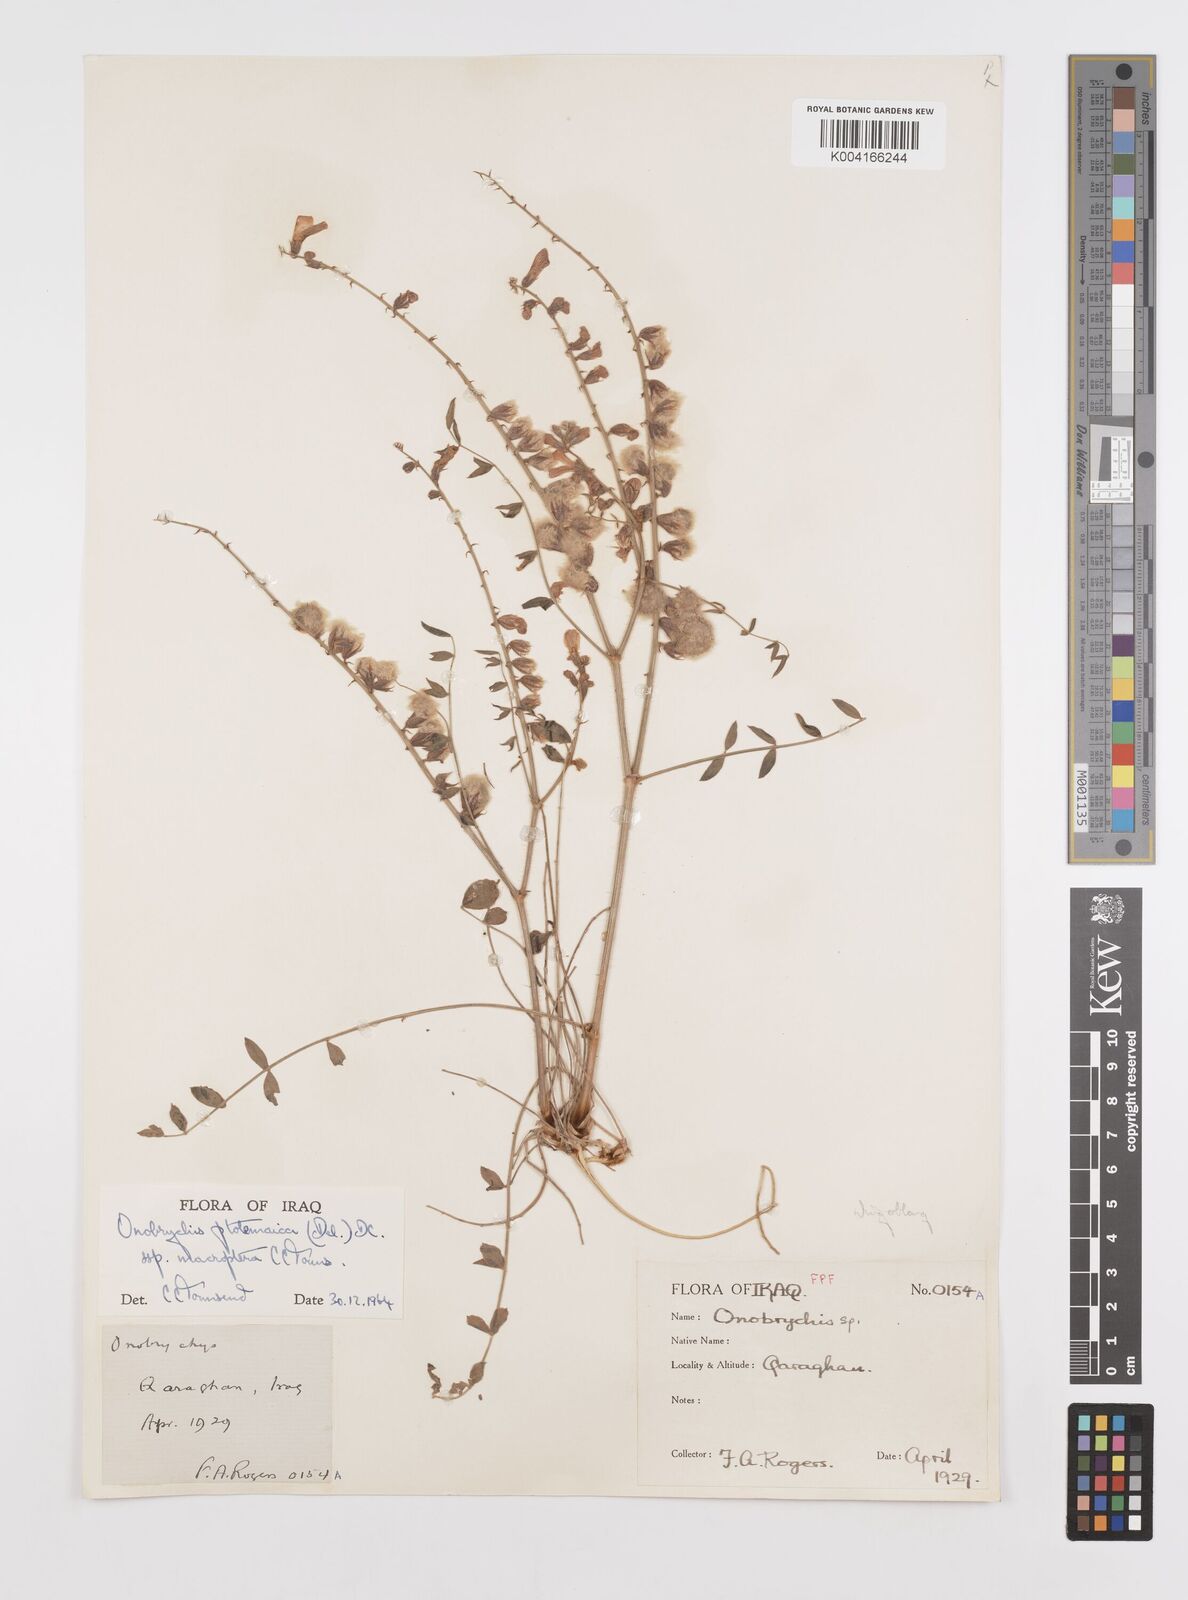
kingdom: Plantae
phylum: Tracheophyta
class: Magnoliopsida
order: Fabales
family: Fabaceae
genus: Onobrychis
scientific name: Onobrychis ptolemaica
